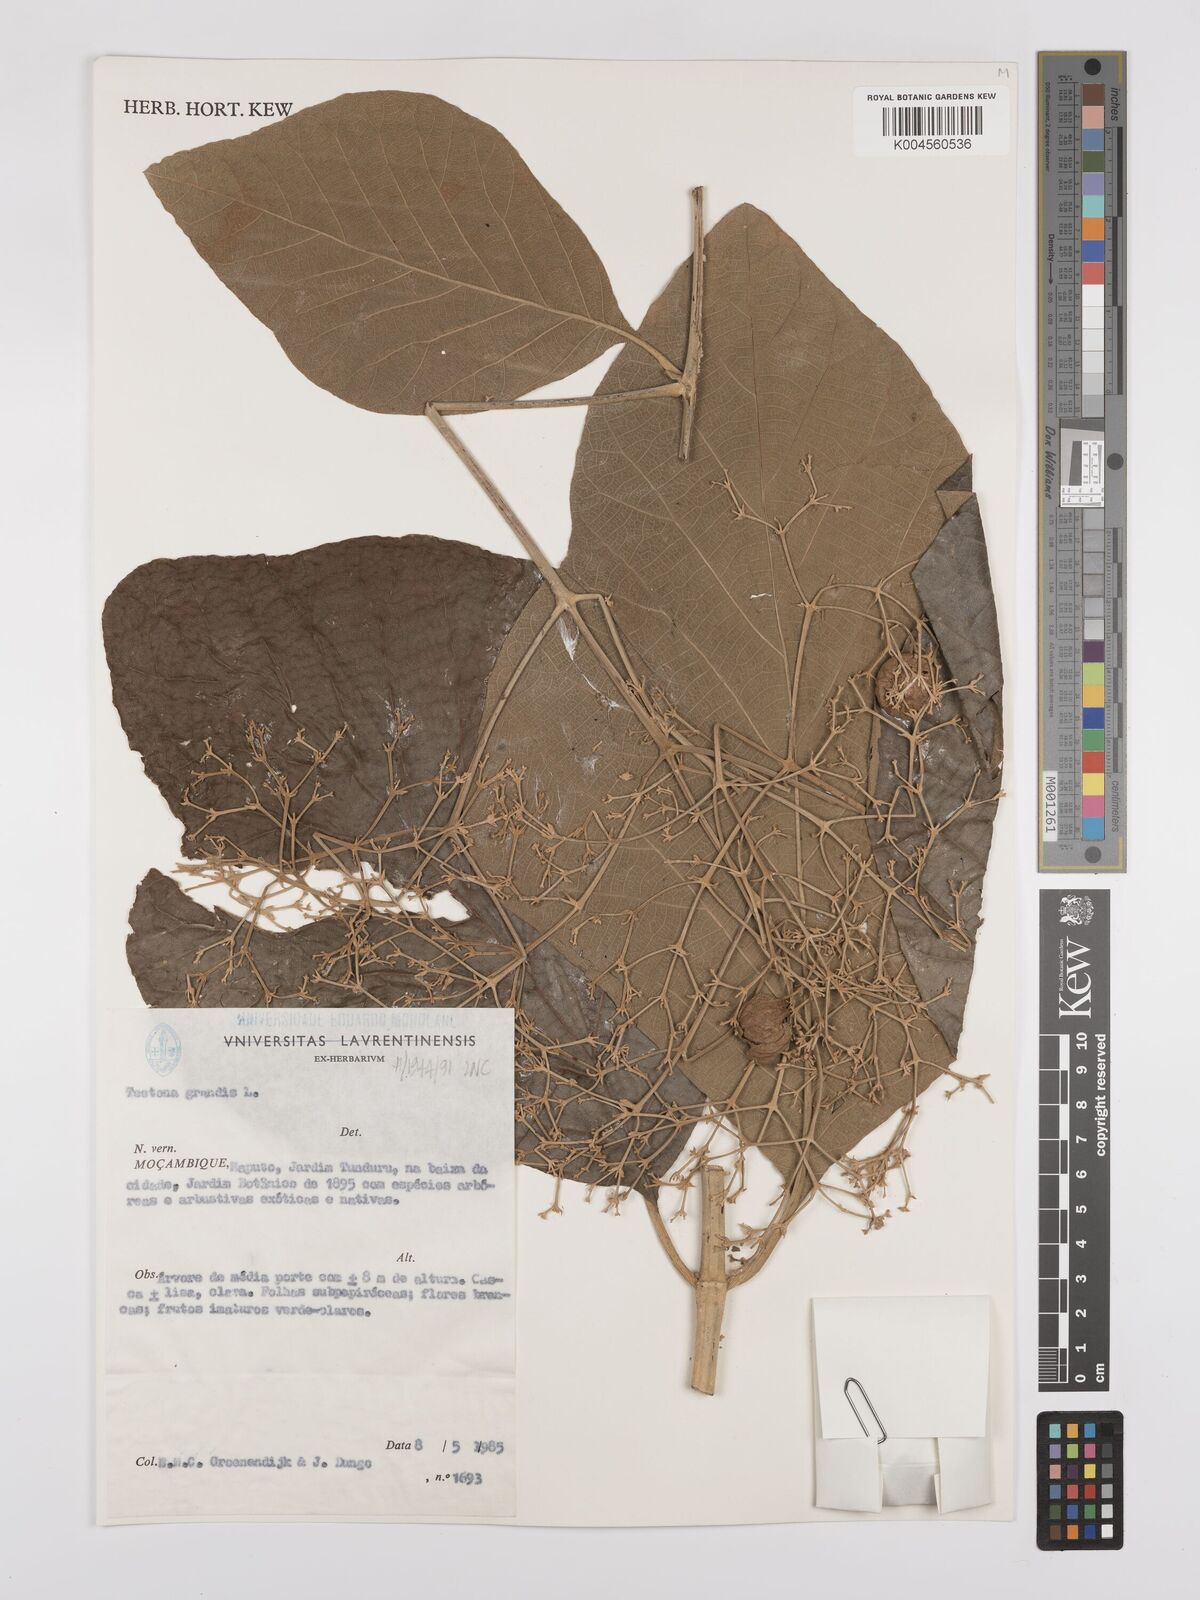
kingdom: Plantae
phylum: Tracheophyta
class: Magnoliopsida
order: Lamiales
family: Lamiaceae
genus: Tectona
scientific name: Tectona
